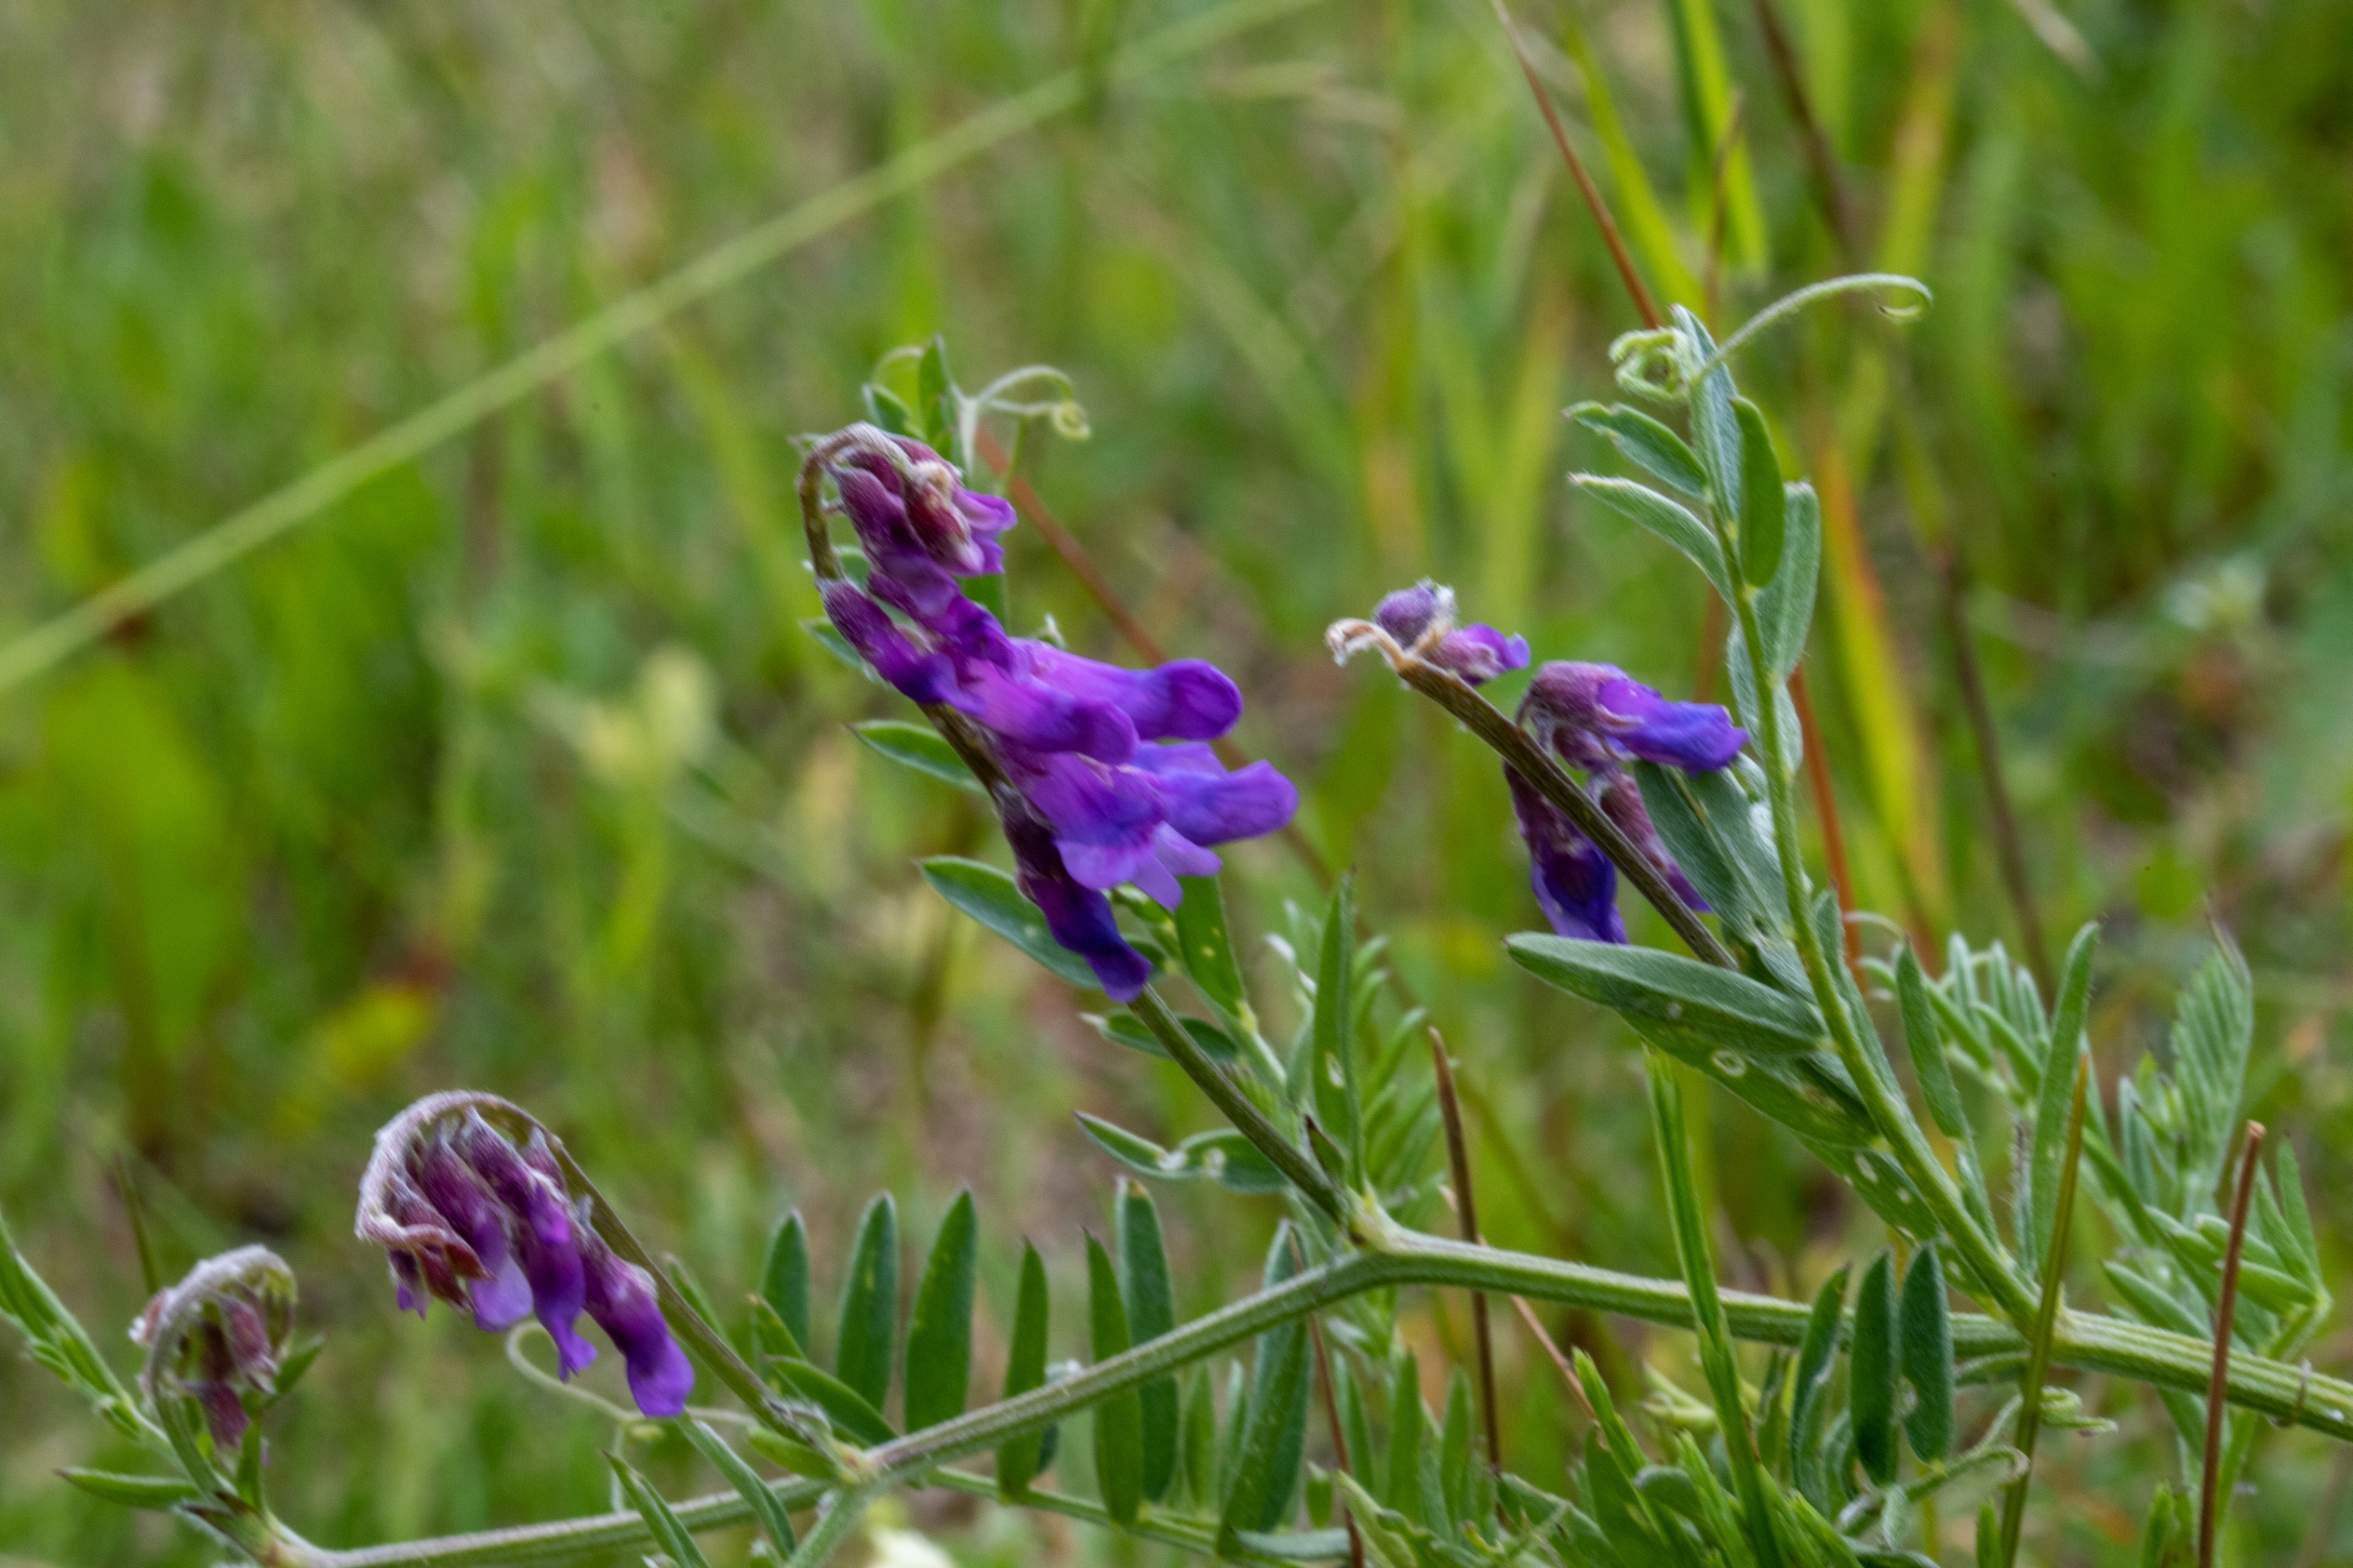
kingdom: Plantae
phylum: Tracheophyta
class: Magnoliopsida
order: Fabales
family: Fabaceae
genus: Vicia
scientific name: Vicia cracca
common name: Muse-vikke
